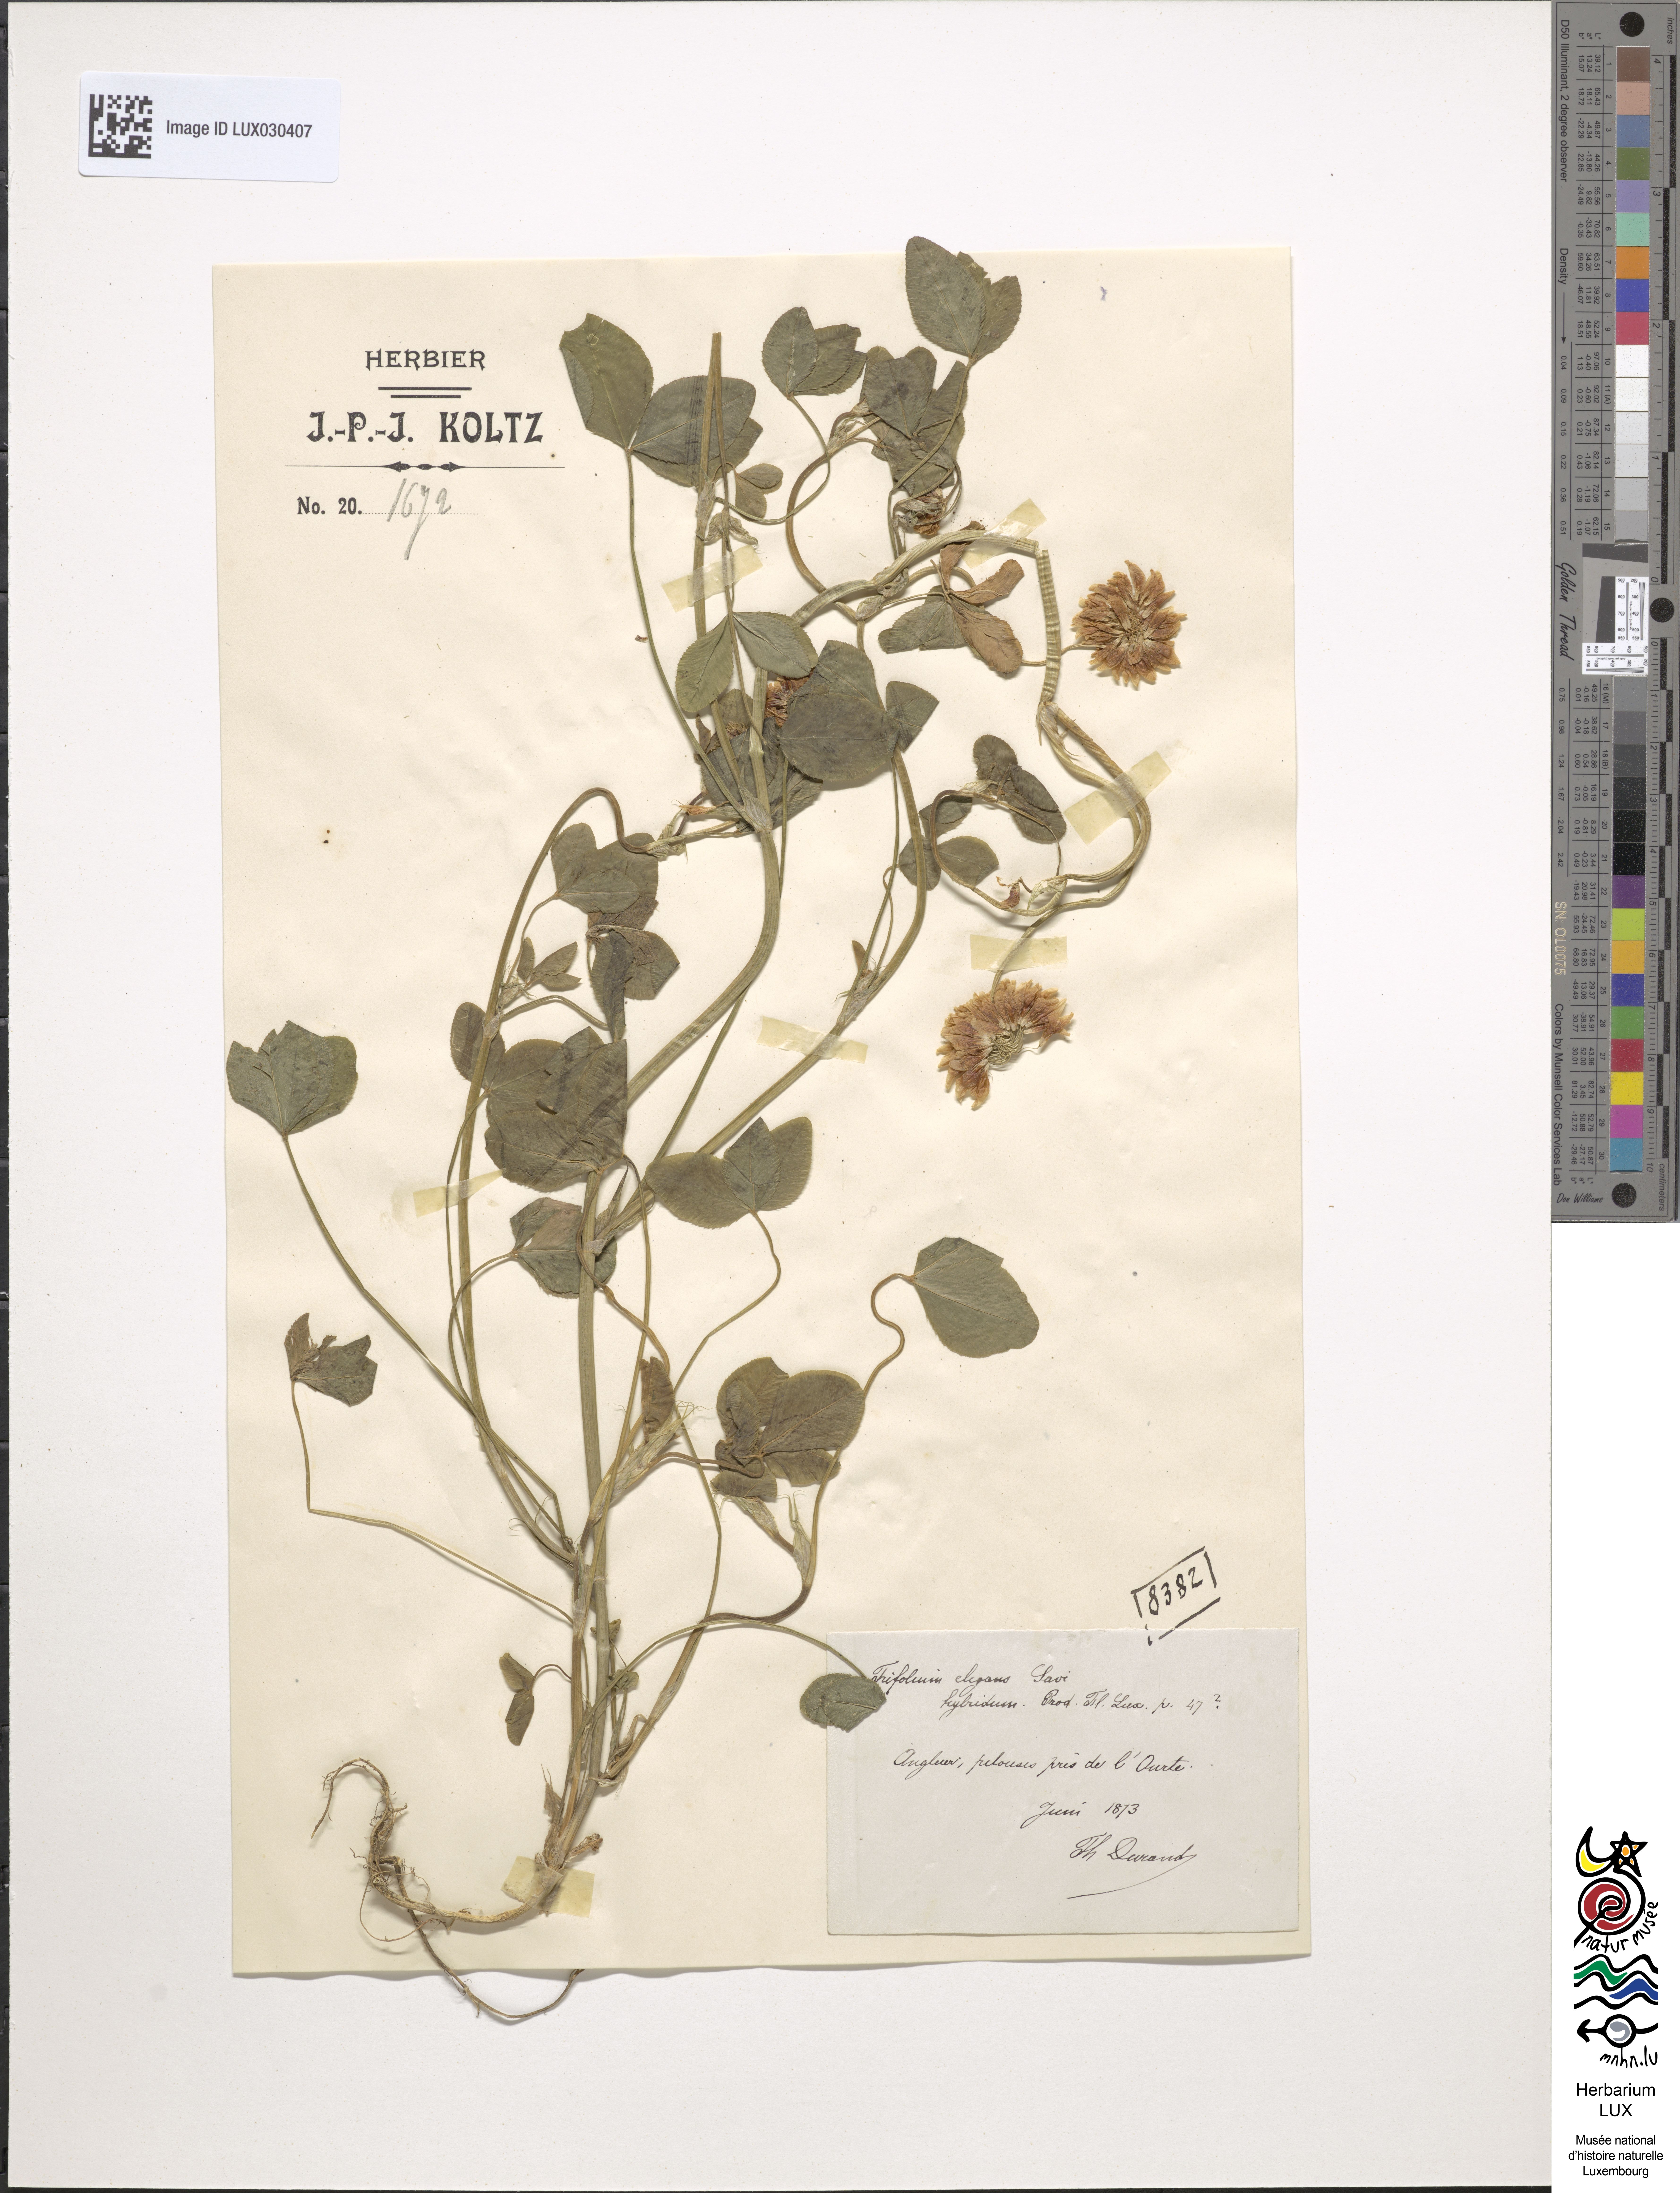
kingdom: Plantae
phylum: Tracheophyta
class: Magnoliopsida
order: Fabales
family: Fabaceae
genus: Trifolium
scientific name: Trifolium hybridum
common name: Alsike clover
